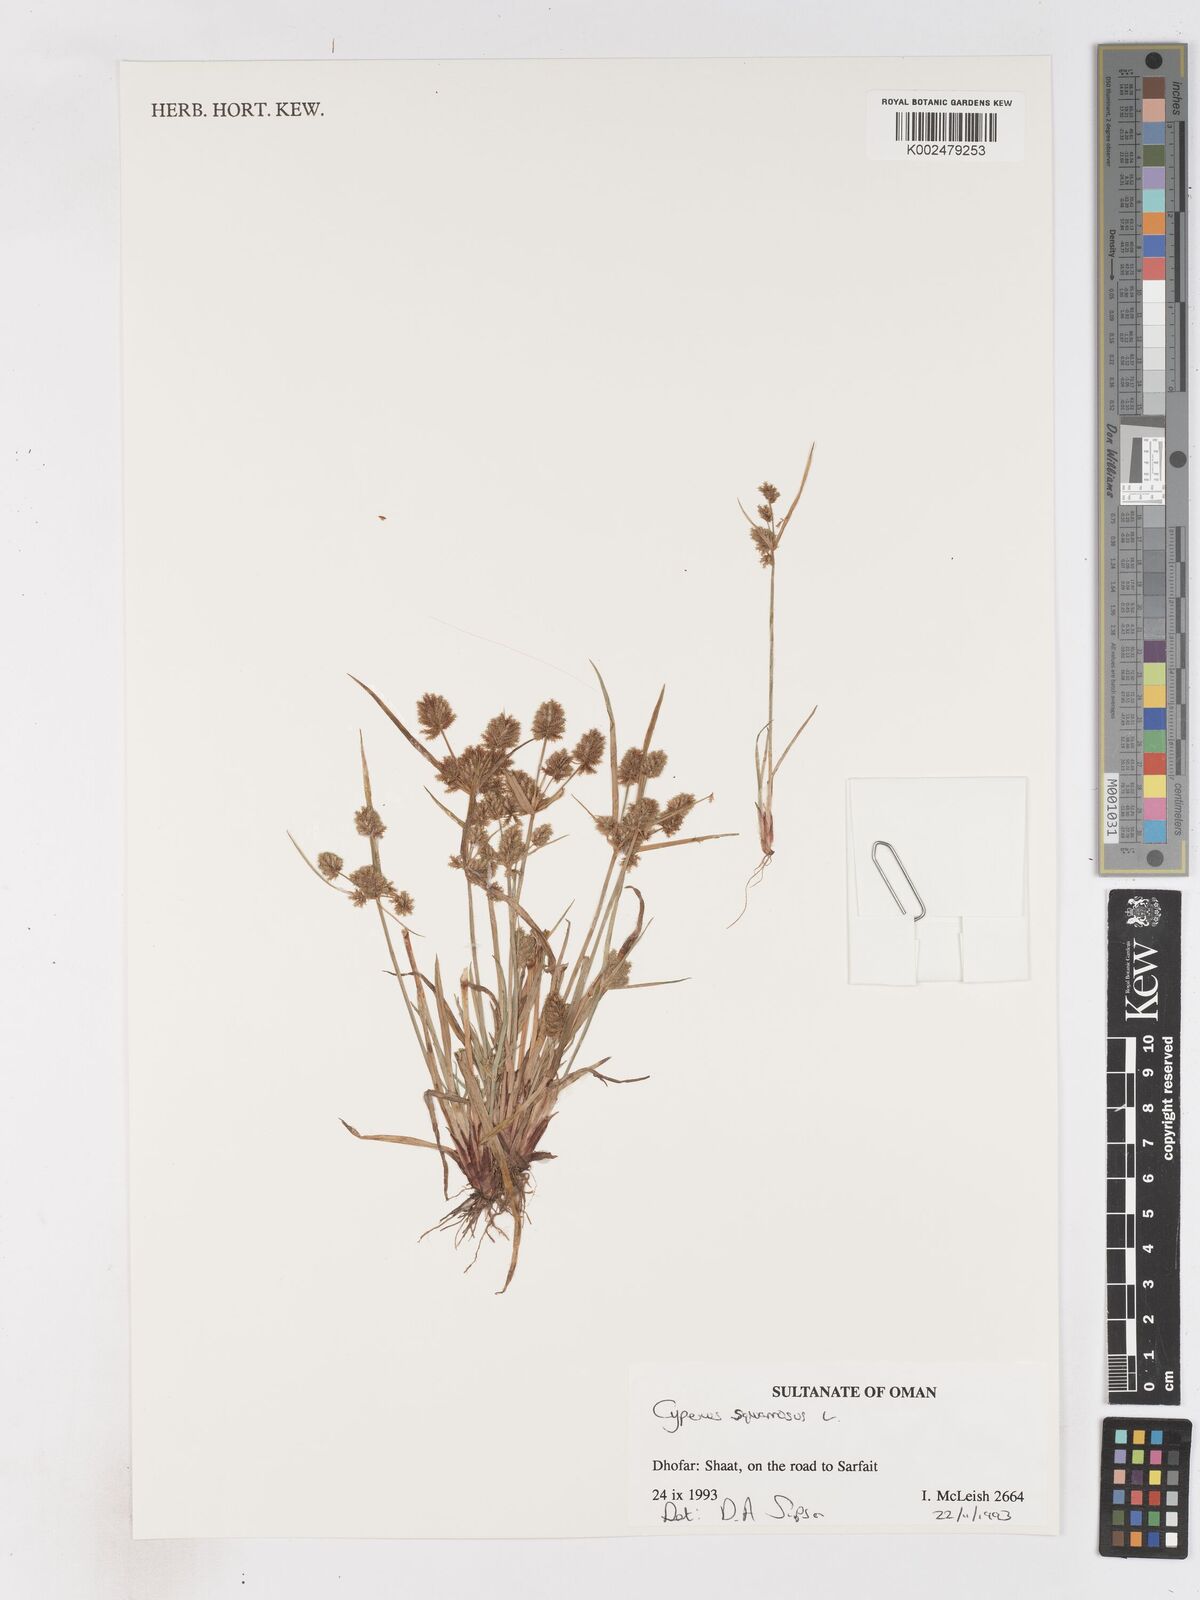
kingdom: Plantae
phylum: Tracheophyta
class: Liliopsida
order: Poales
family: Cyperaceae
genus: Cyperus
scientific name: Cyperus squarrosus
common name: Awned cyperus
